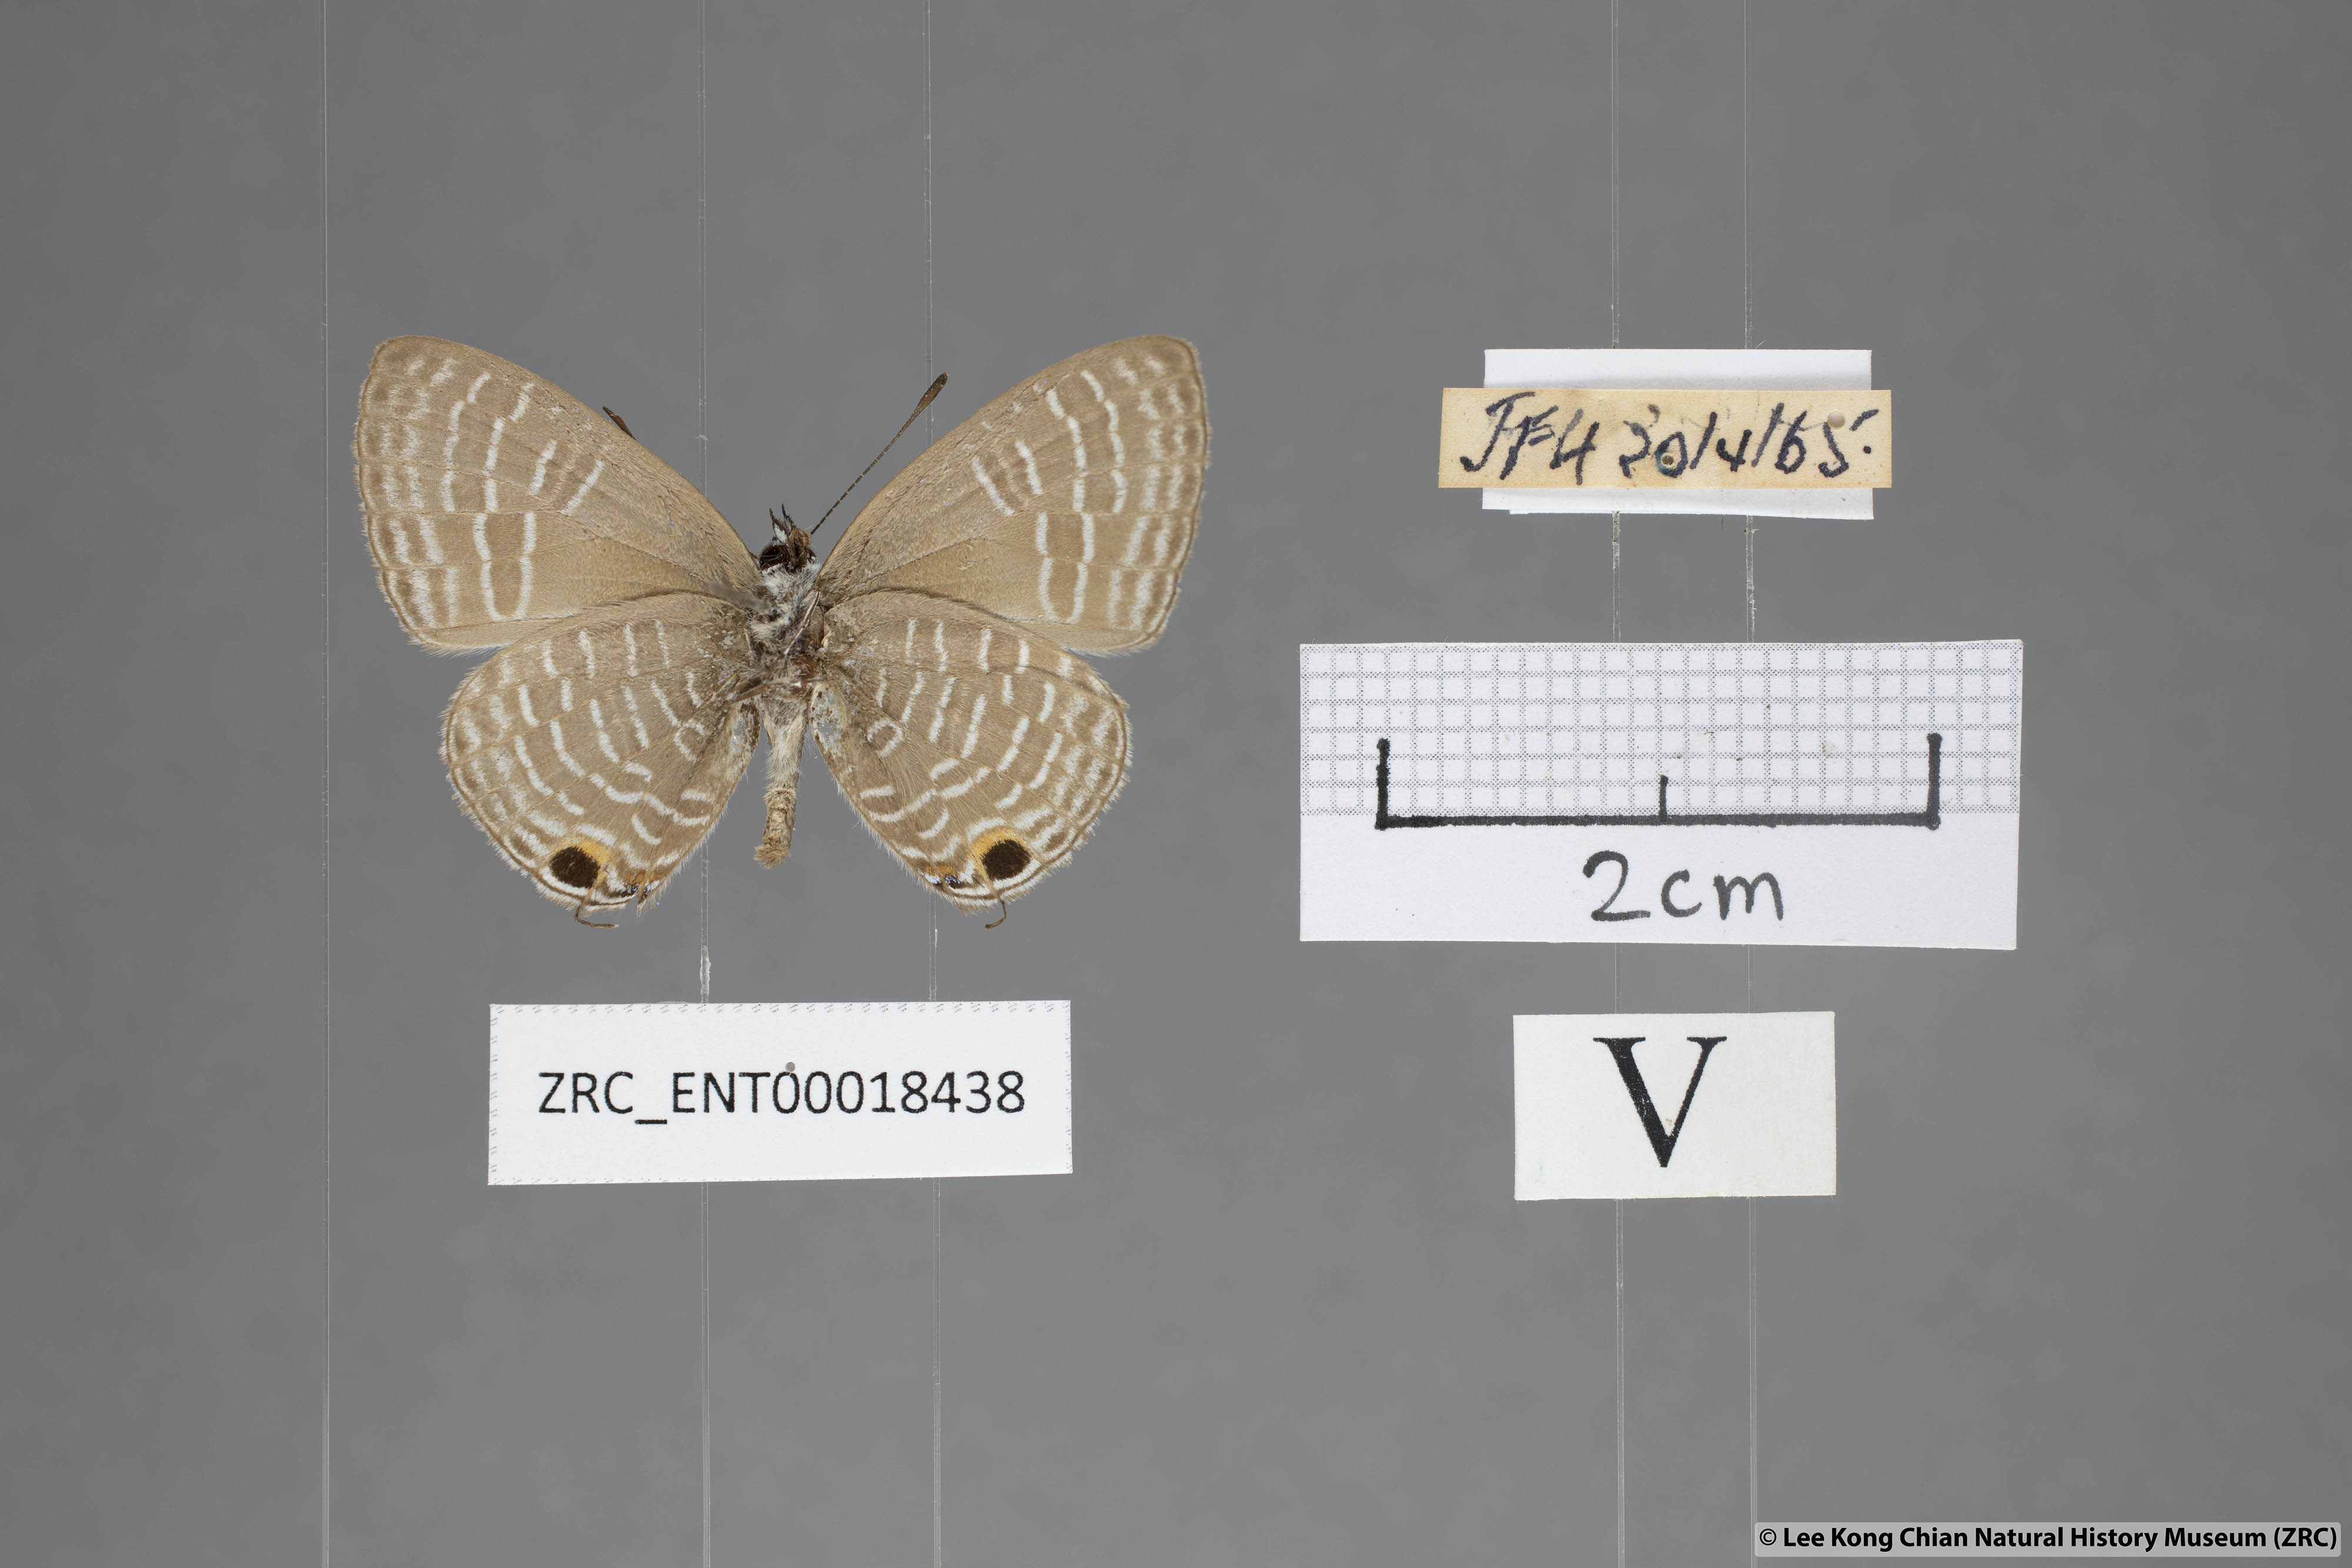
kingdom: Animalia
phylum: Arthropoda
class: Insecta
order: Lepidoptera
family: Lycaenidae
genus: Nacaduba
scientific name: Nacaduba pendleburyi
